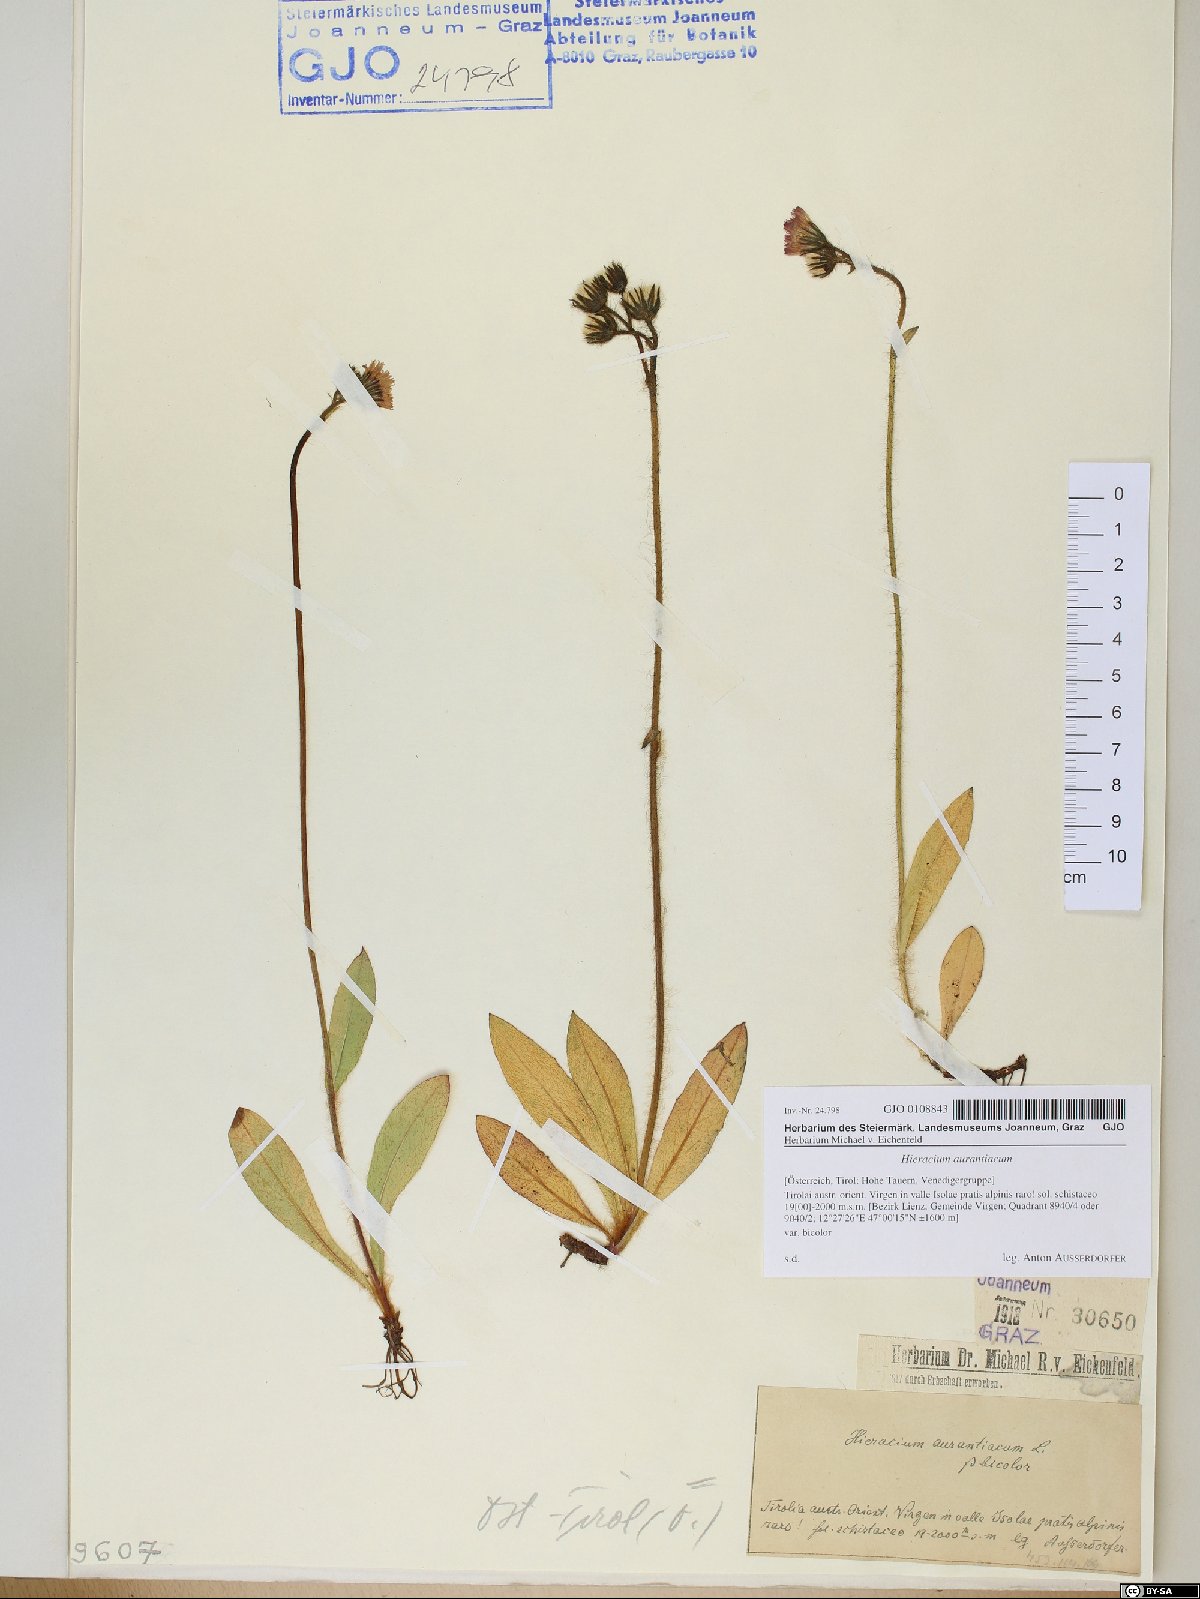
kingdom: Plantae
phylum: Tracheophyta
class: Magnoliopsida
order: Asterales
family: Asteraceae
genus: Pilosella
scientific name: Pilosella aurantiaca
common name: Fox-and-cubs
